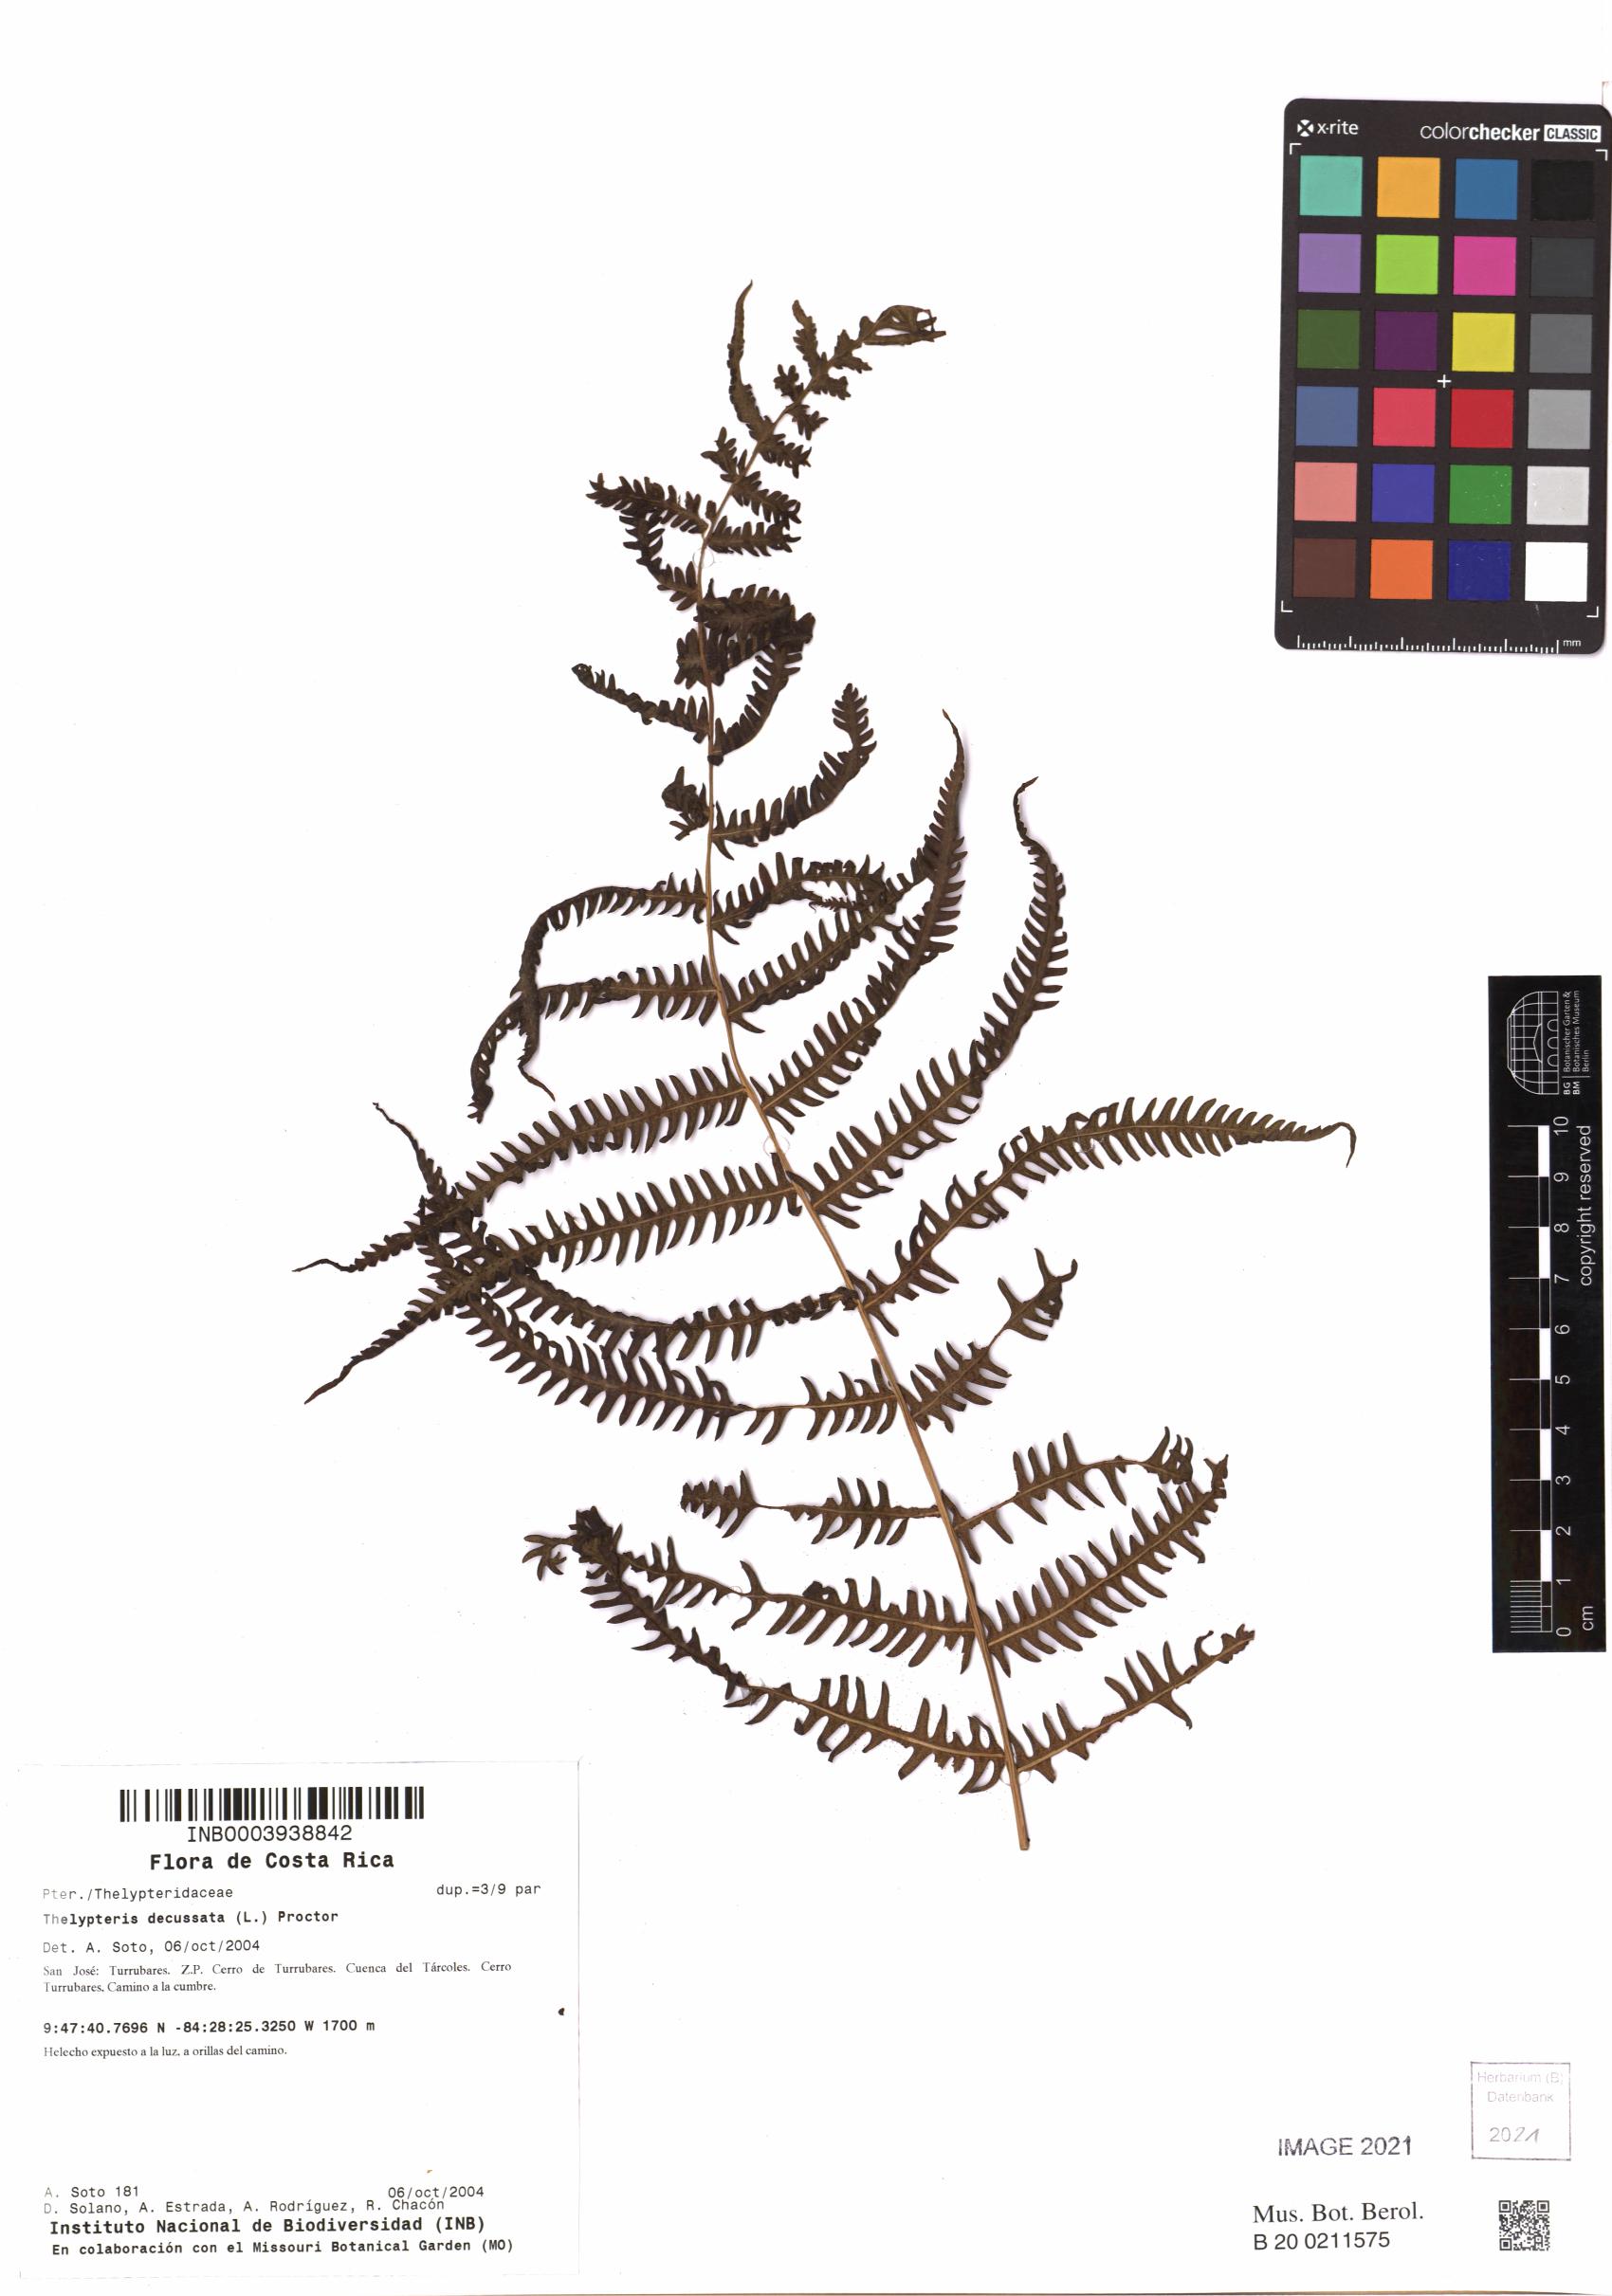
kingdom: Plantae
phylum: Tracheophyta
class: Polypodiopsida
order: Polypodiales
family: Thelypteridaceae
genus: Steiropteris
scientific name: Steiropteris decussata
